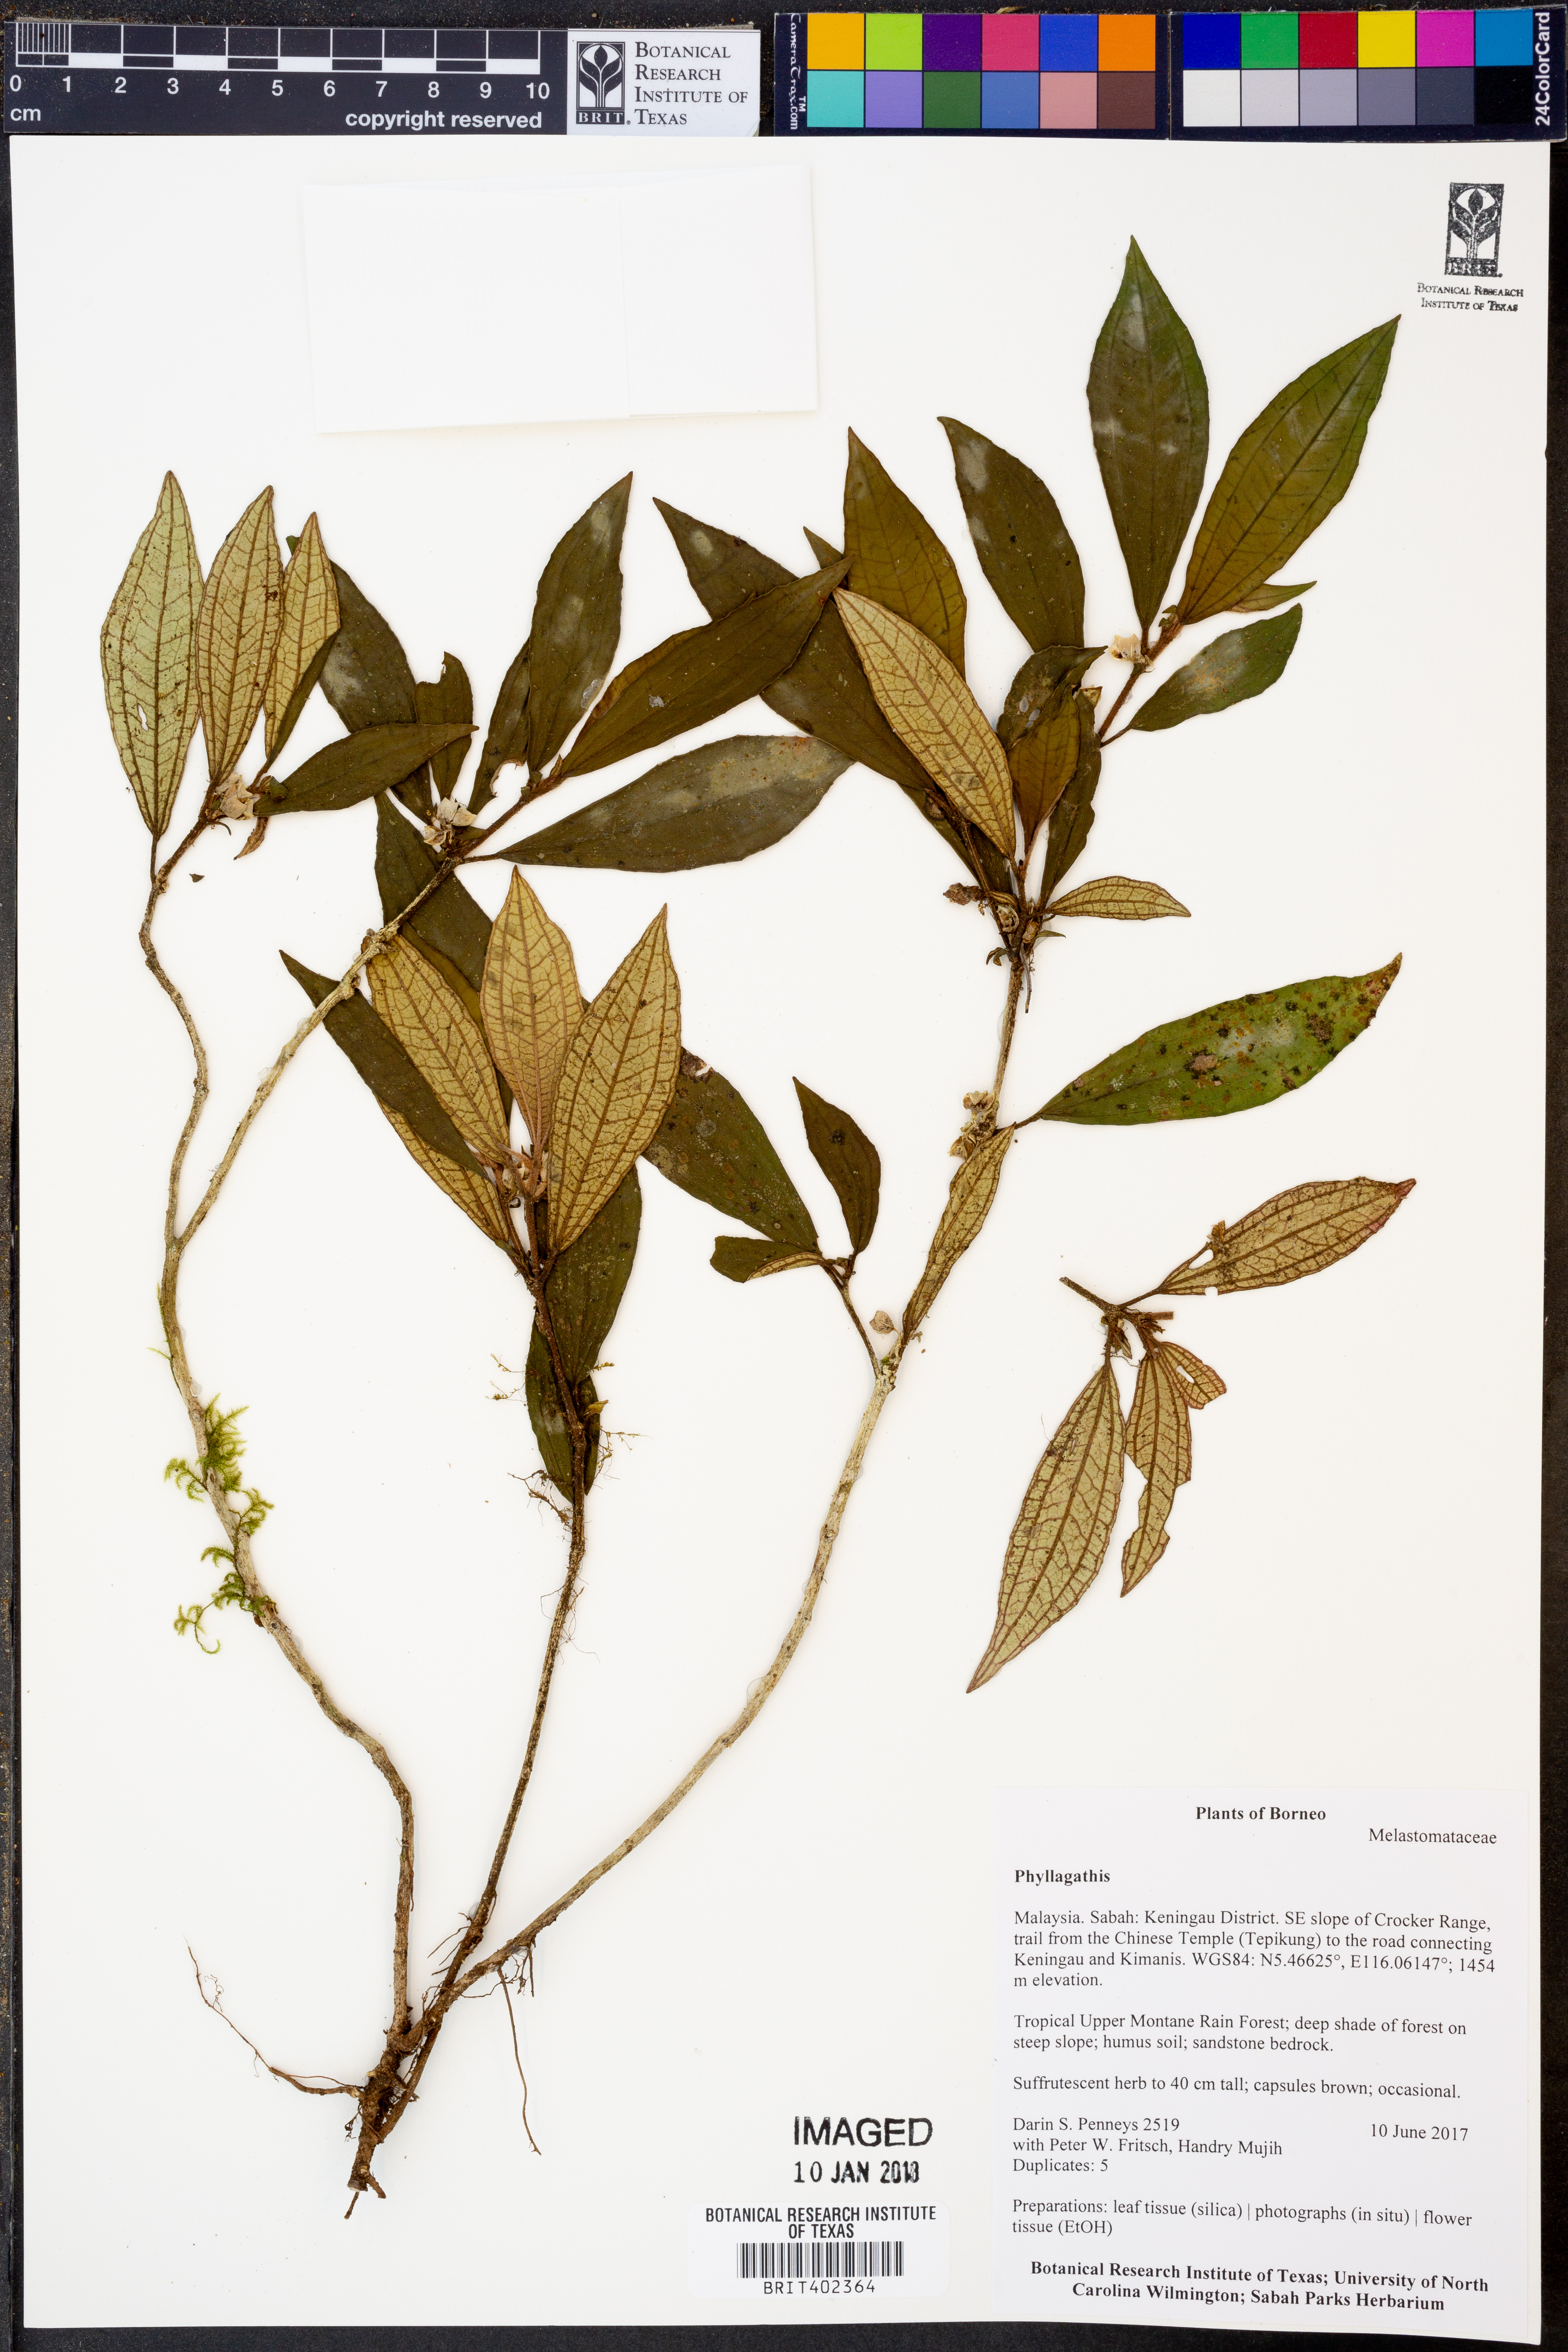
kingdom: Plantae
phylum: Tracheophyta
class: Magnoliopsida
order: Myrtales
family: Melastomataceae
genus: Phyllagathis
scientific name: Phyllagathis
